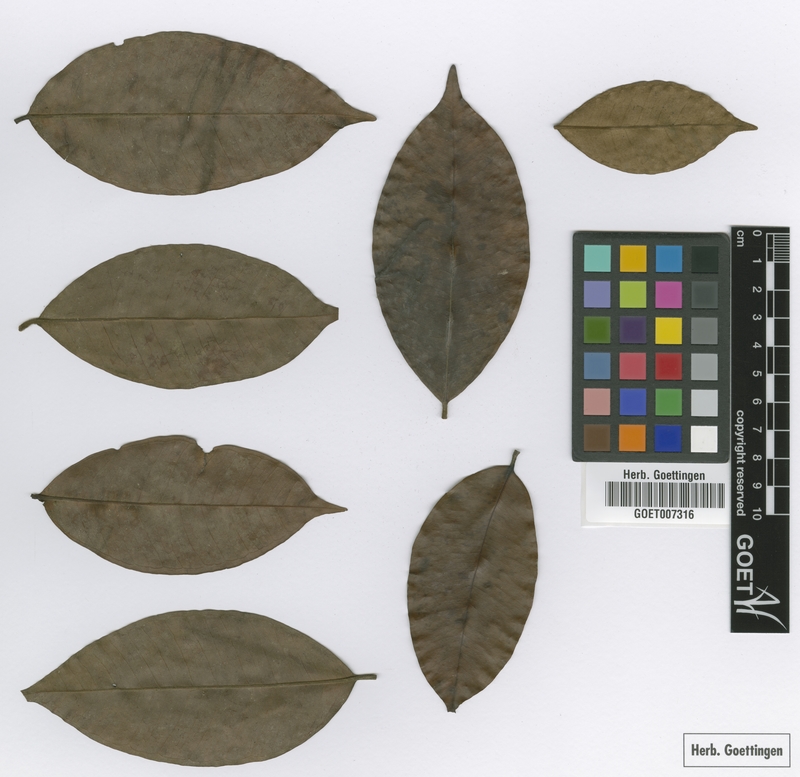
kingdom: Plantae
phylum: Tracheophyta
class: Magnoliopsida
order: Myrtales
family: Myrtaceae
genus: Myrcia
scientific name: Myrcia ferruginea
